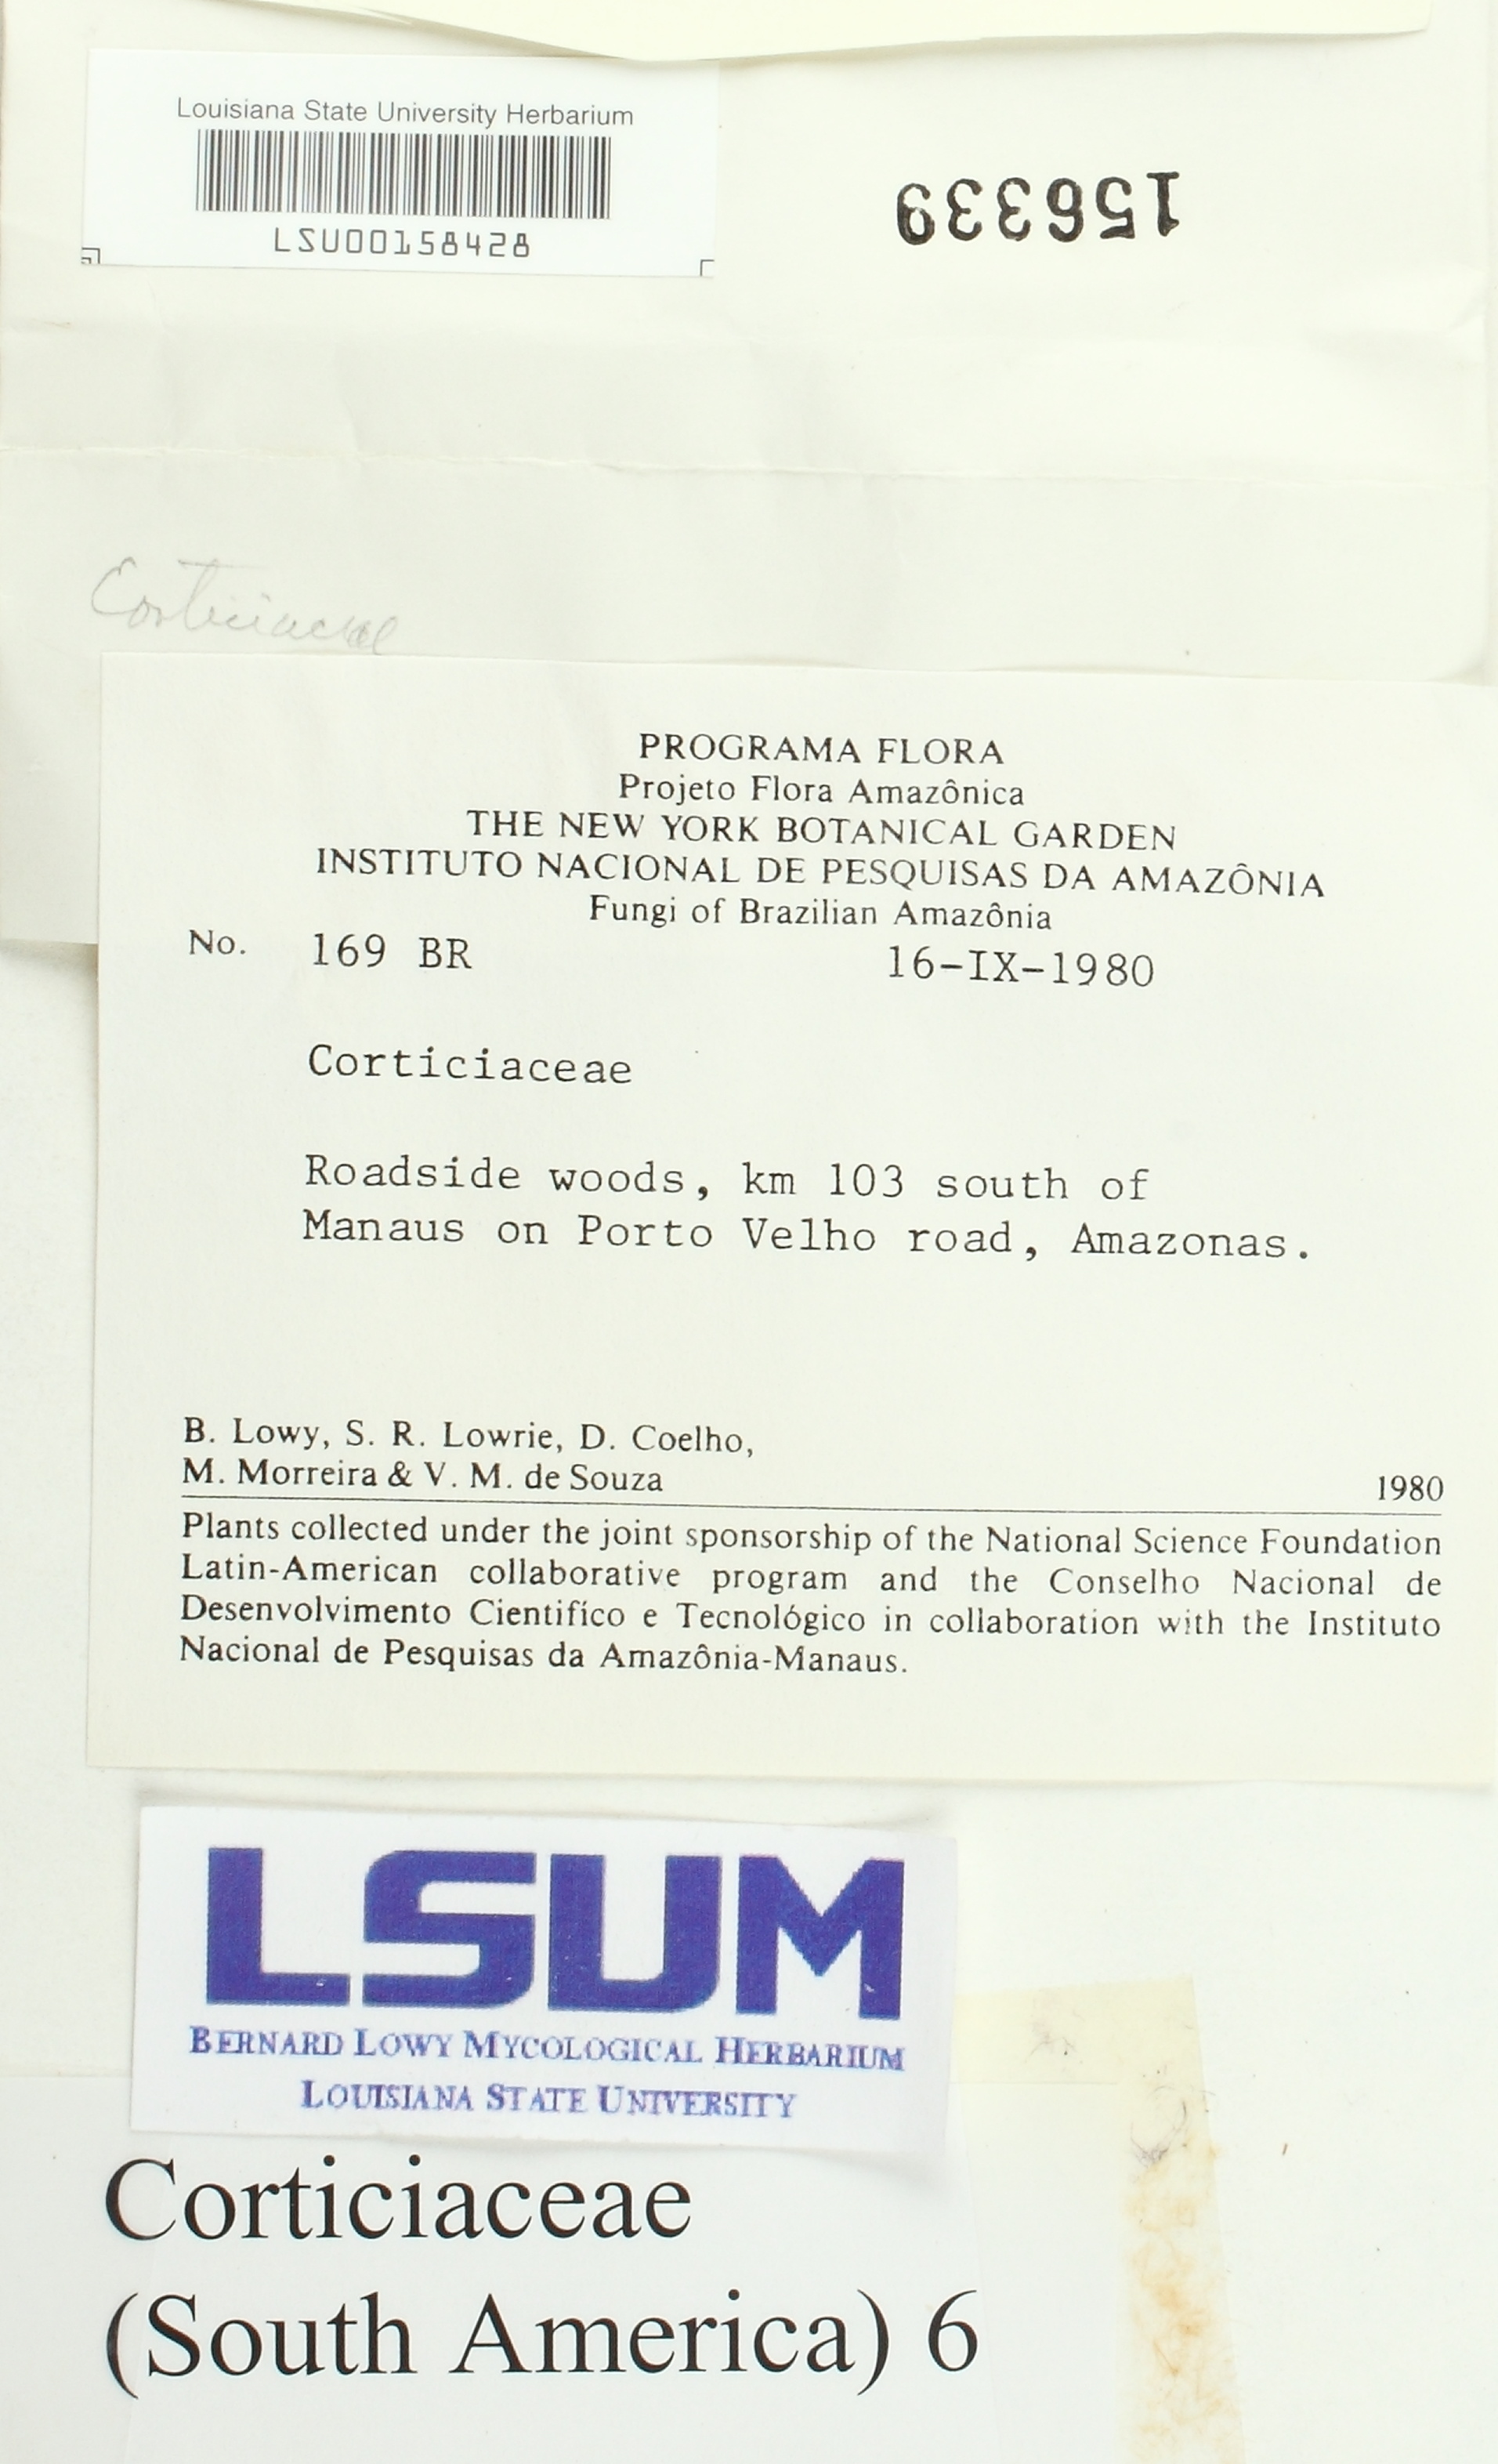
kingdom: Fungi
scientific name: Fungi
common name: Fungi
